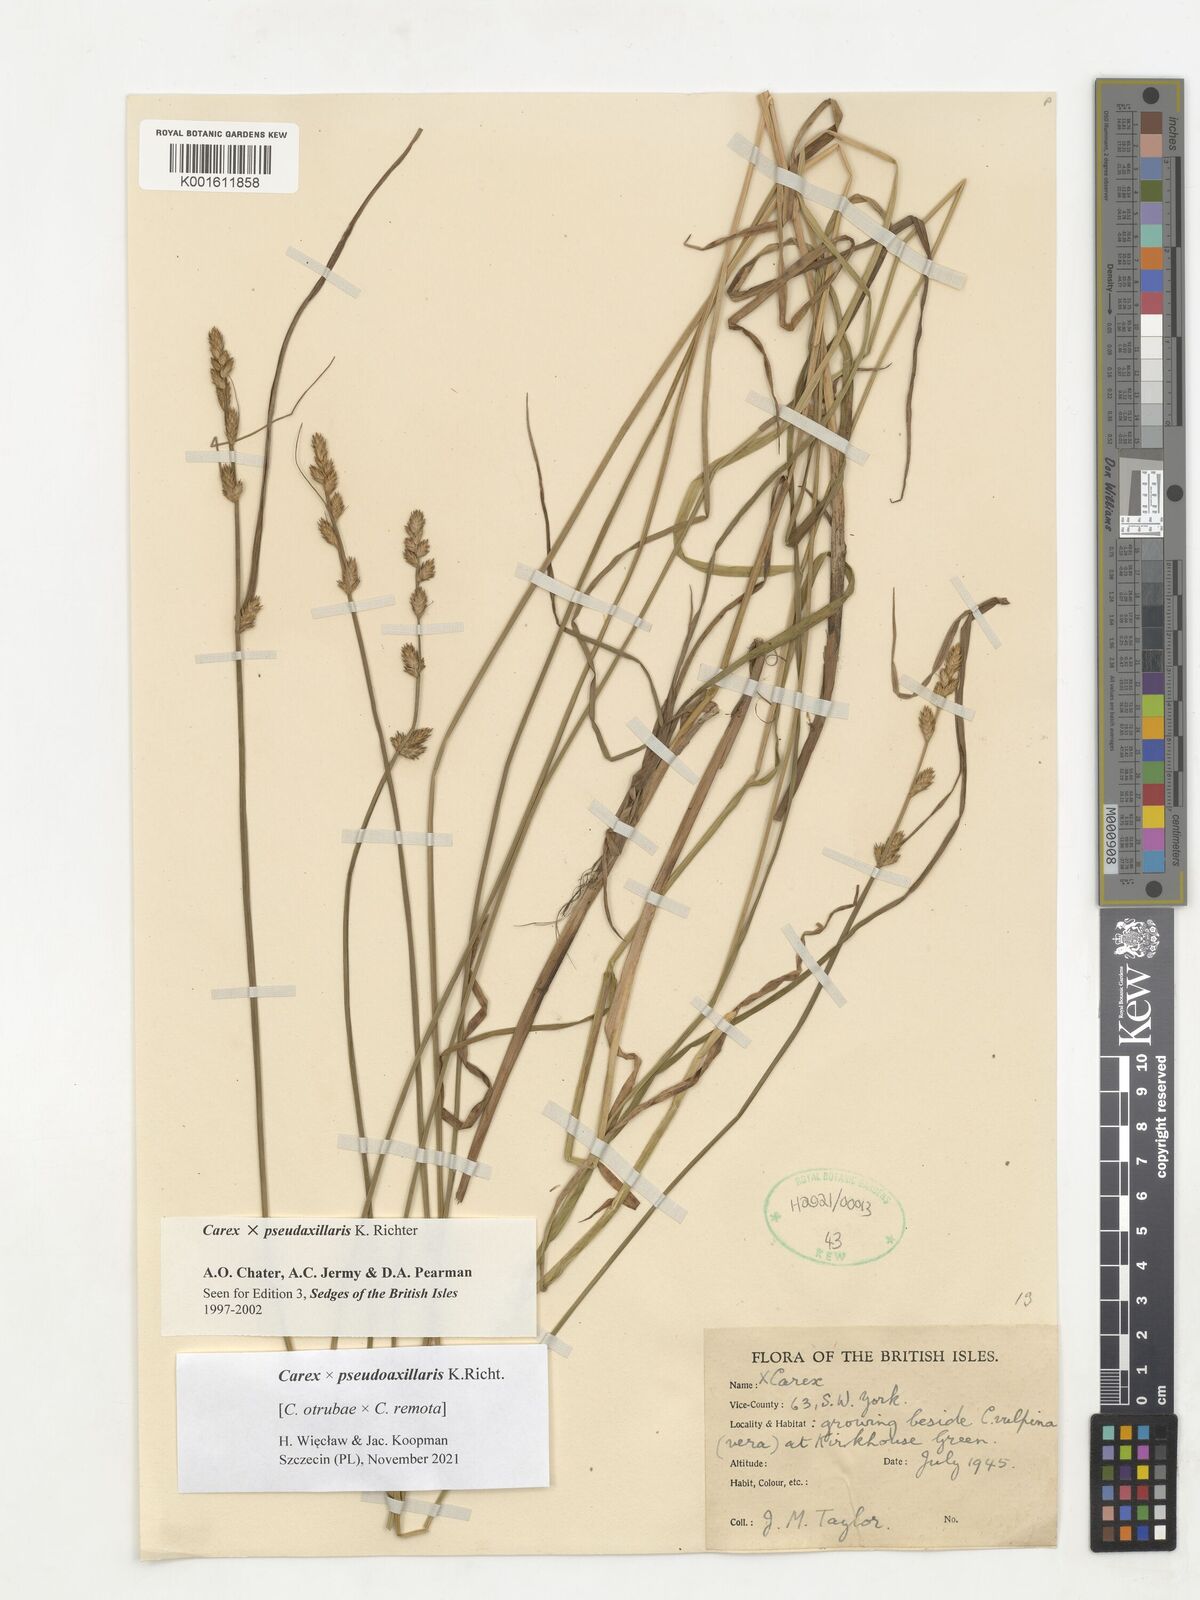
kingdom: Plantae
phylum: Tracheophyta
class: Liliopsida
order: Poales
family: Cyperaceae
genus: Carex
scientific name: Carex pseudoaxillaris
